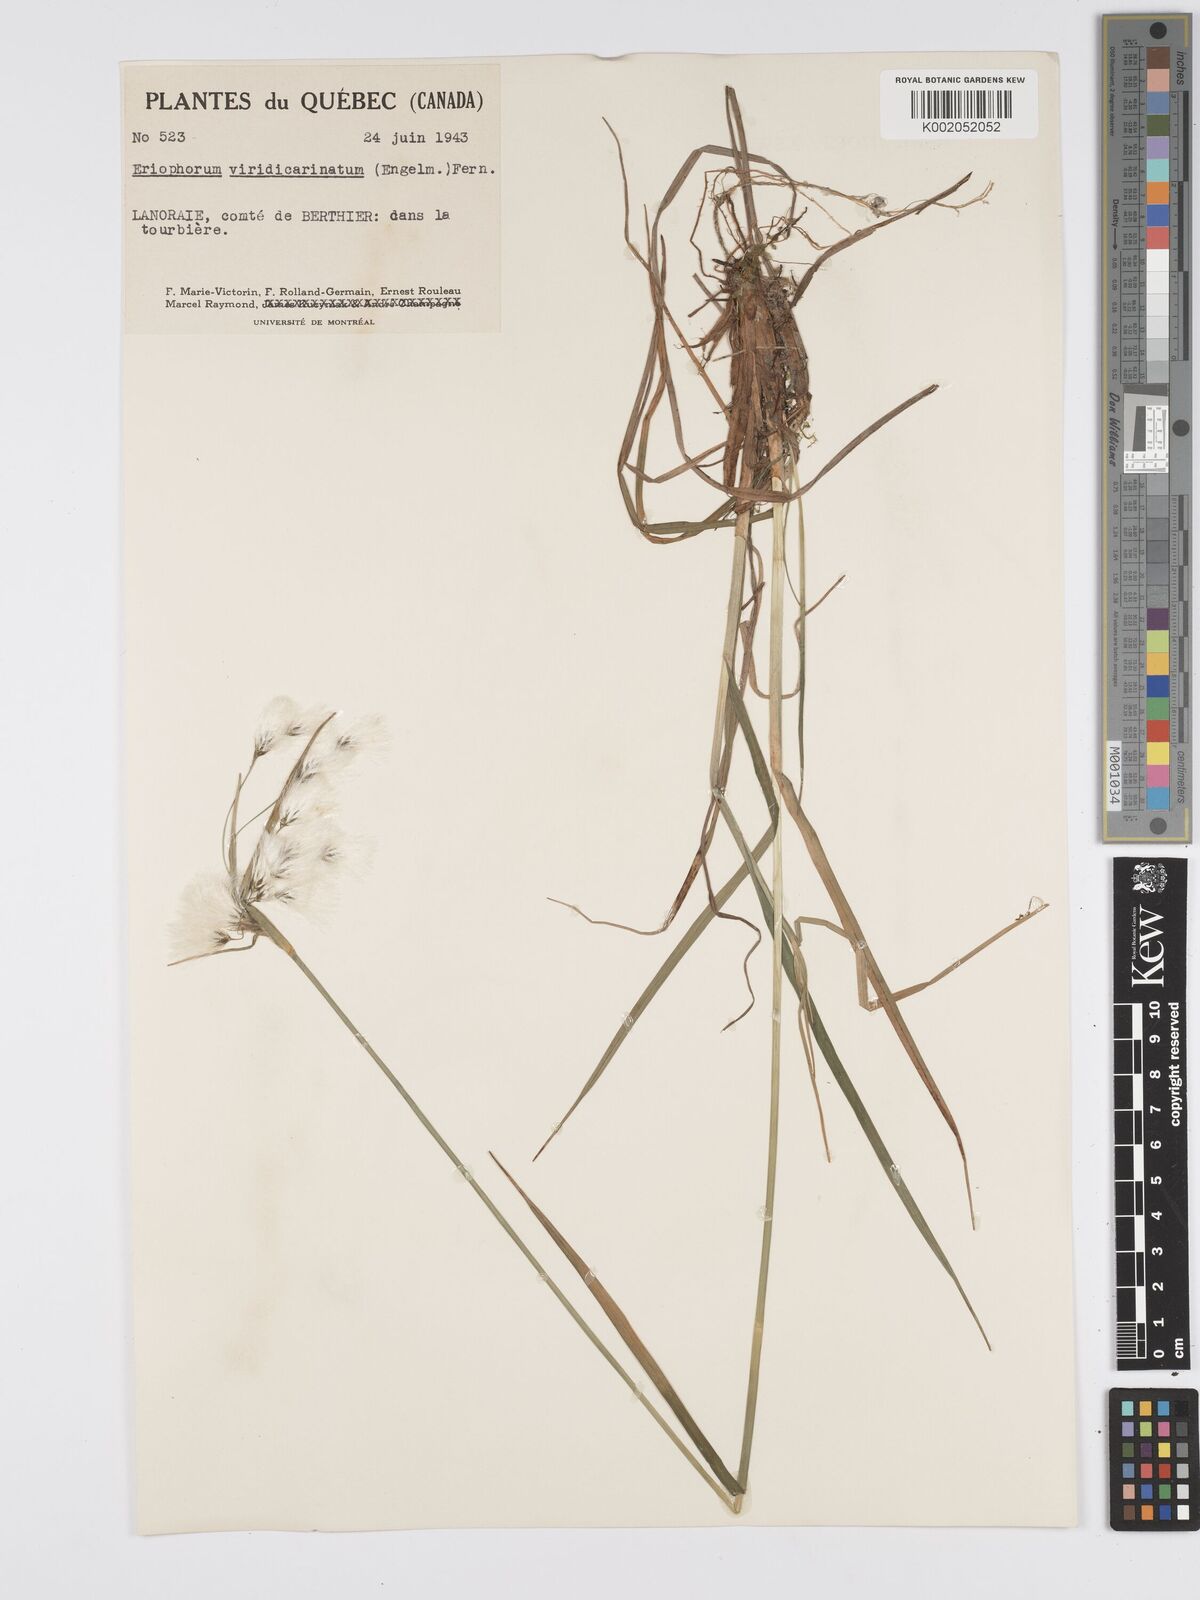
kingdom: Plantae
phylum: Tracheophyta
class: Liliopsida
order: Poales
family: Cyperaceae
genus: Eriophorum
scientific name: Eriophorum viridicarinatum
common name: Green-keeled cottongrass
